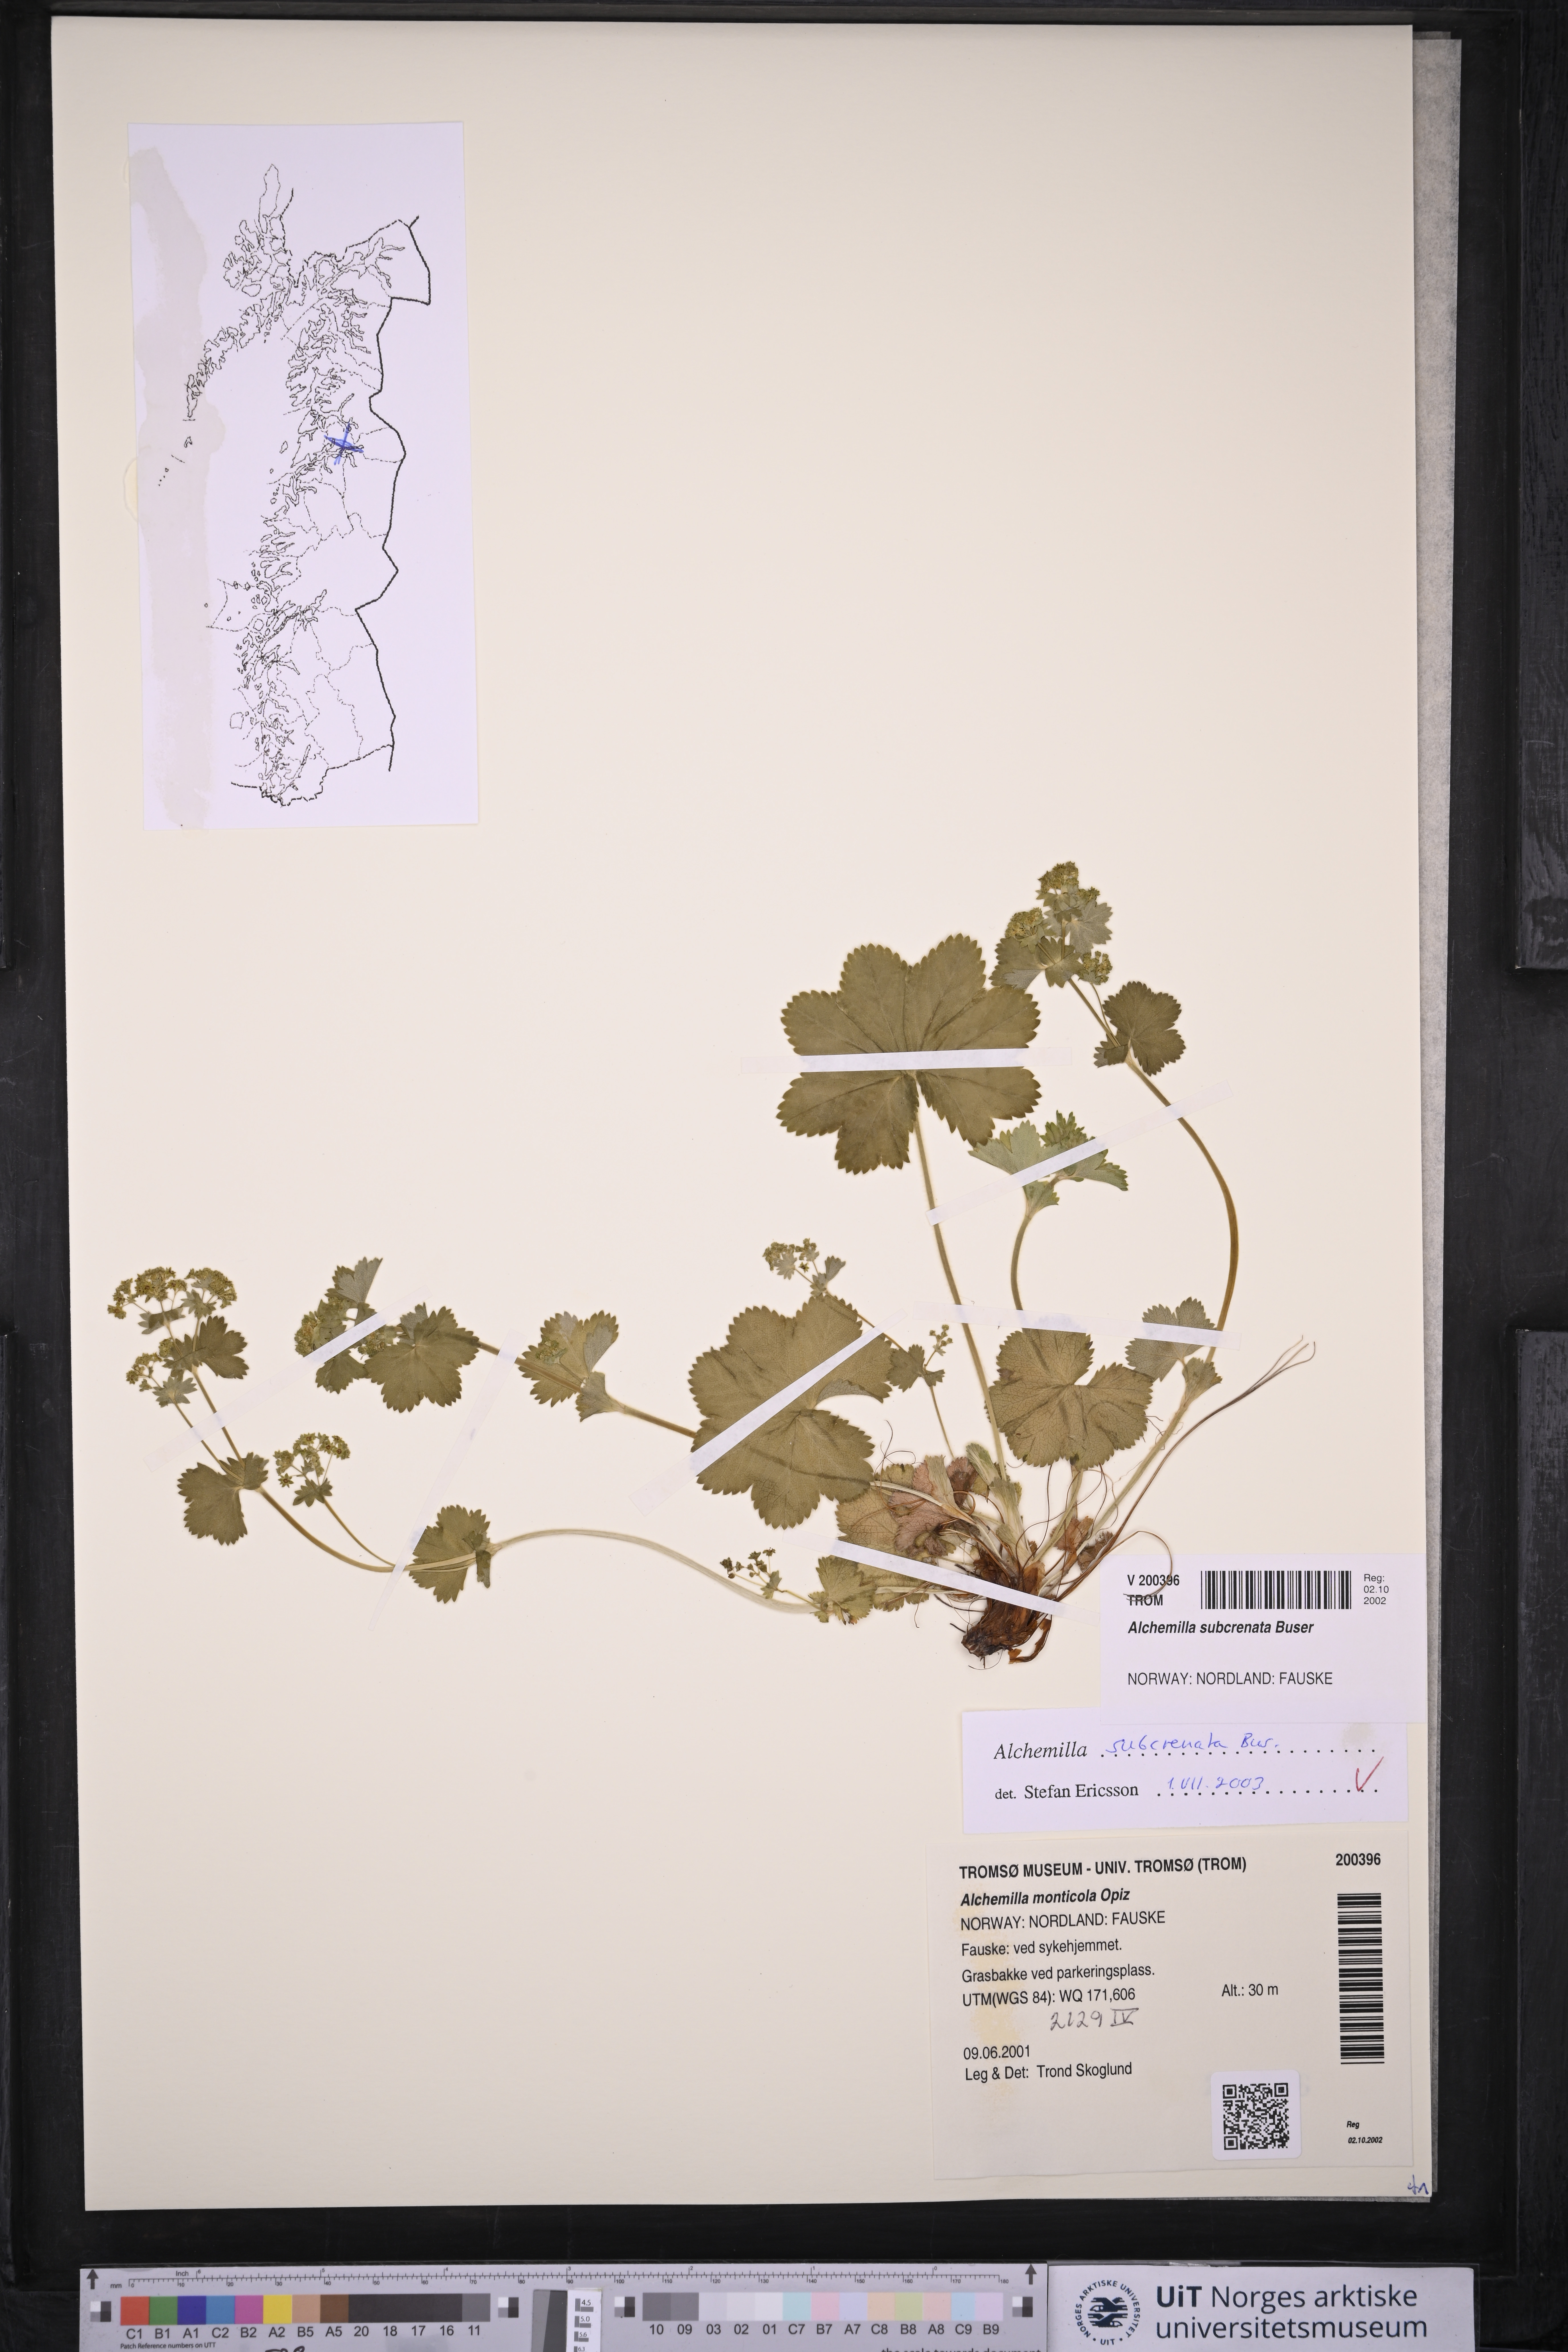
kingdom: Plantae
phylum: Tracheophyta
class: Magnoliopsida
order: Rosales
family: Rosaceae
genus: Alchemilla
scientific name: Alchemilla subcrenata
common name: Broadtooth lady's mantle
